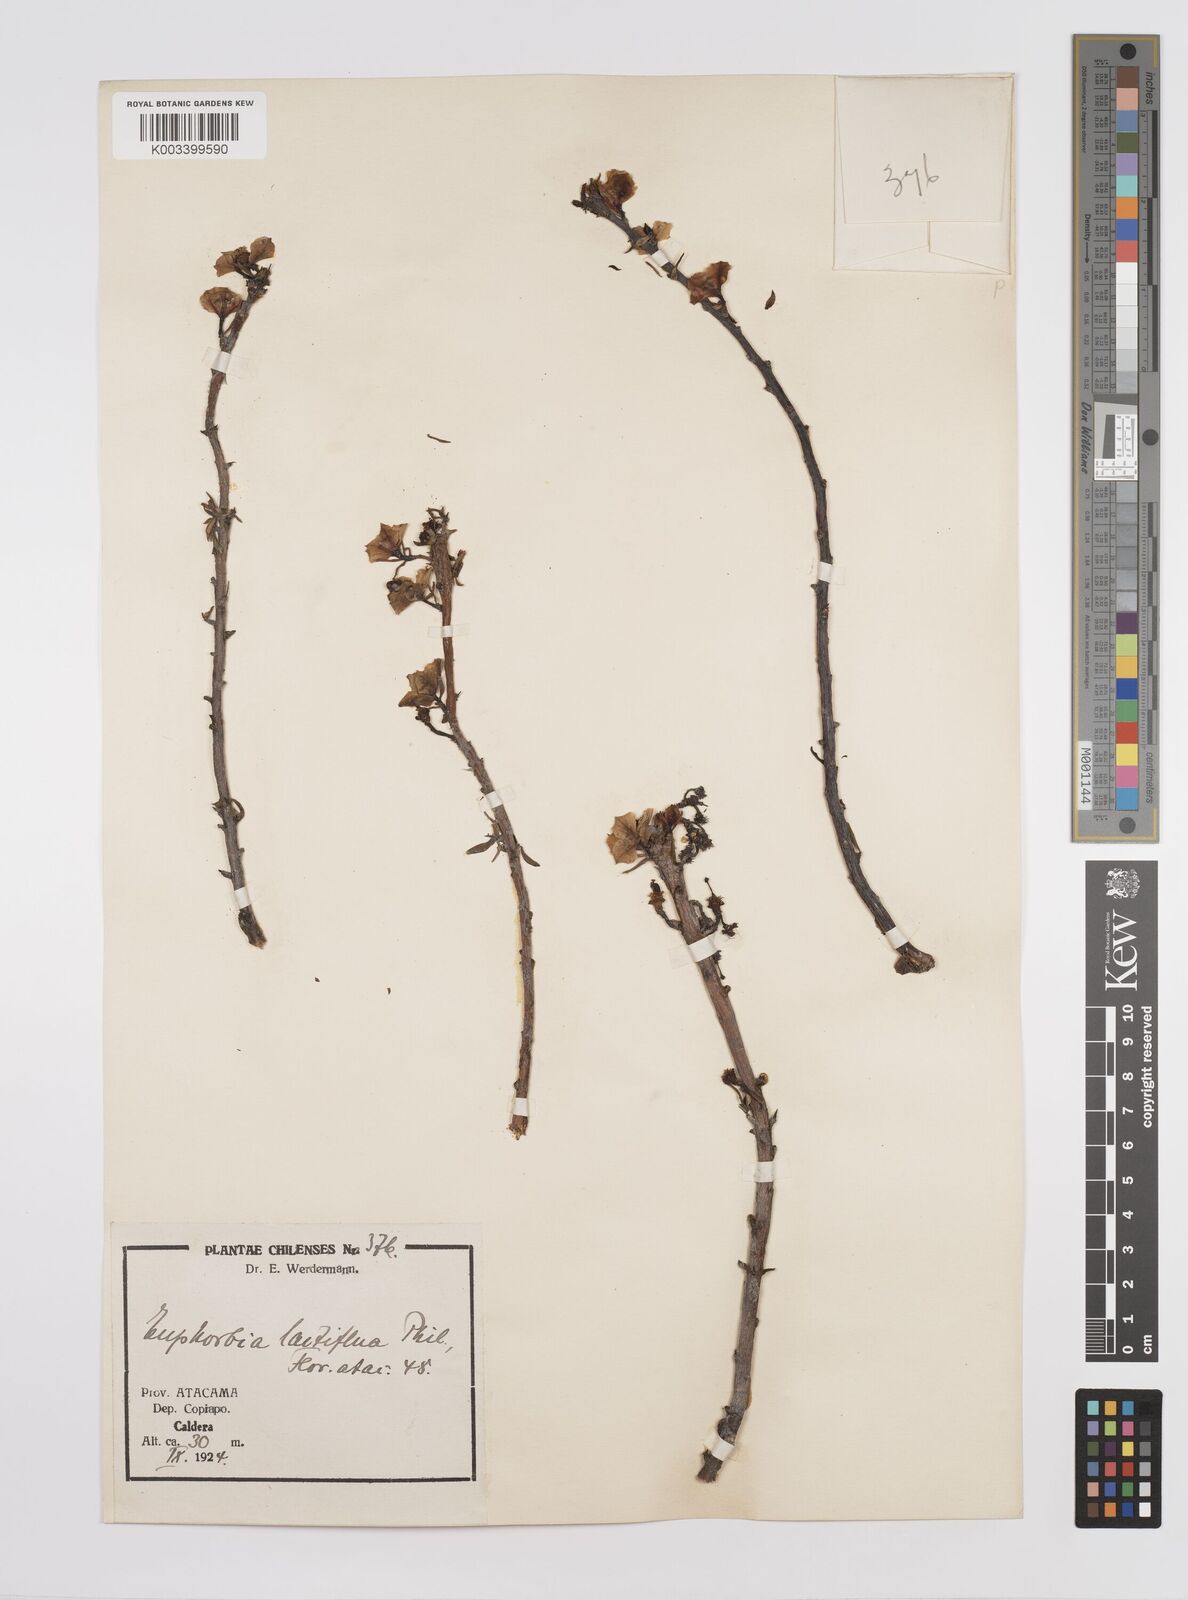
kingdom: Plantae
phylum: Tracheophyta
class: Magnoliopsida
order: Malpighiales
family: Euphorbiaceae
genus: Euphorbia
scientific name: Euphorbia lactiflua
